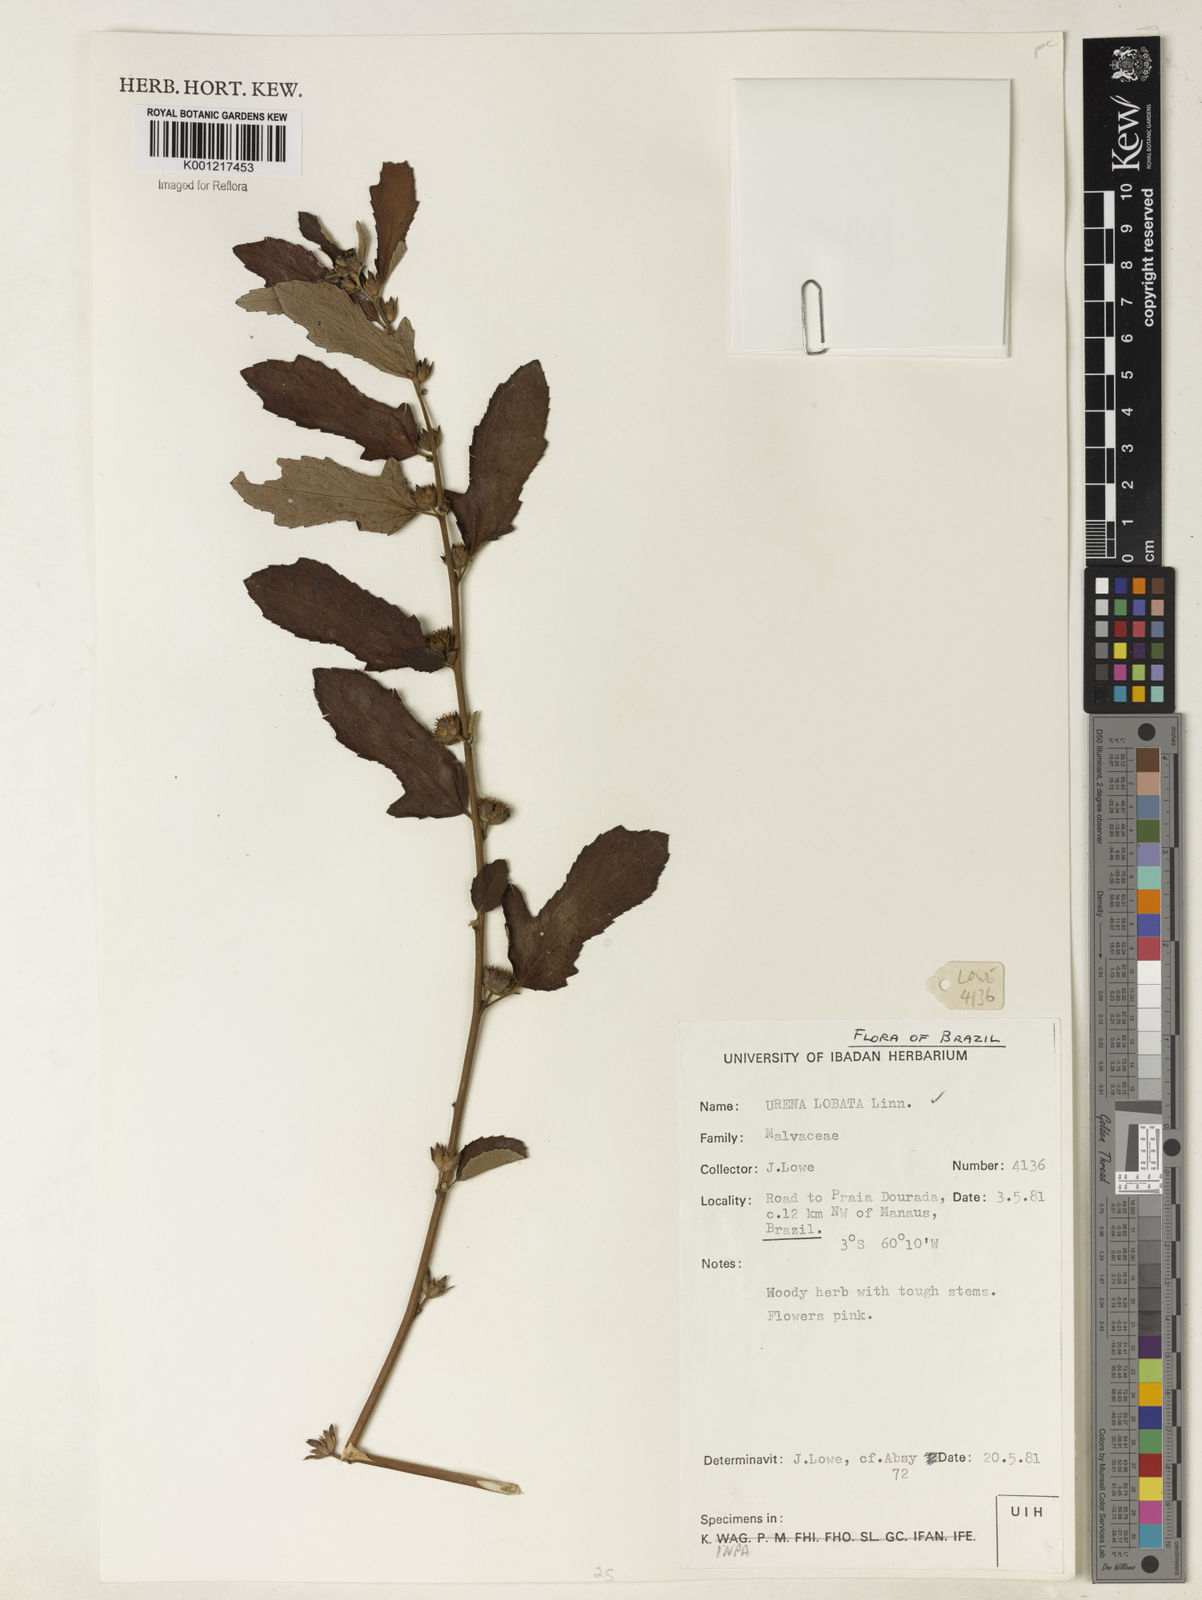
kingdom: Plantae
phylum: Tracheophyta
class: Magnoliopsida
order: Malvales
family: Malvaceae
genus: Urena
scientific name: Urena lobata
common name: Caesarweed
